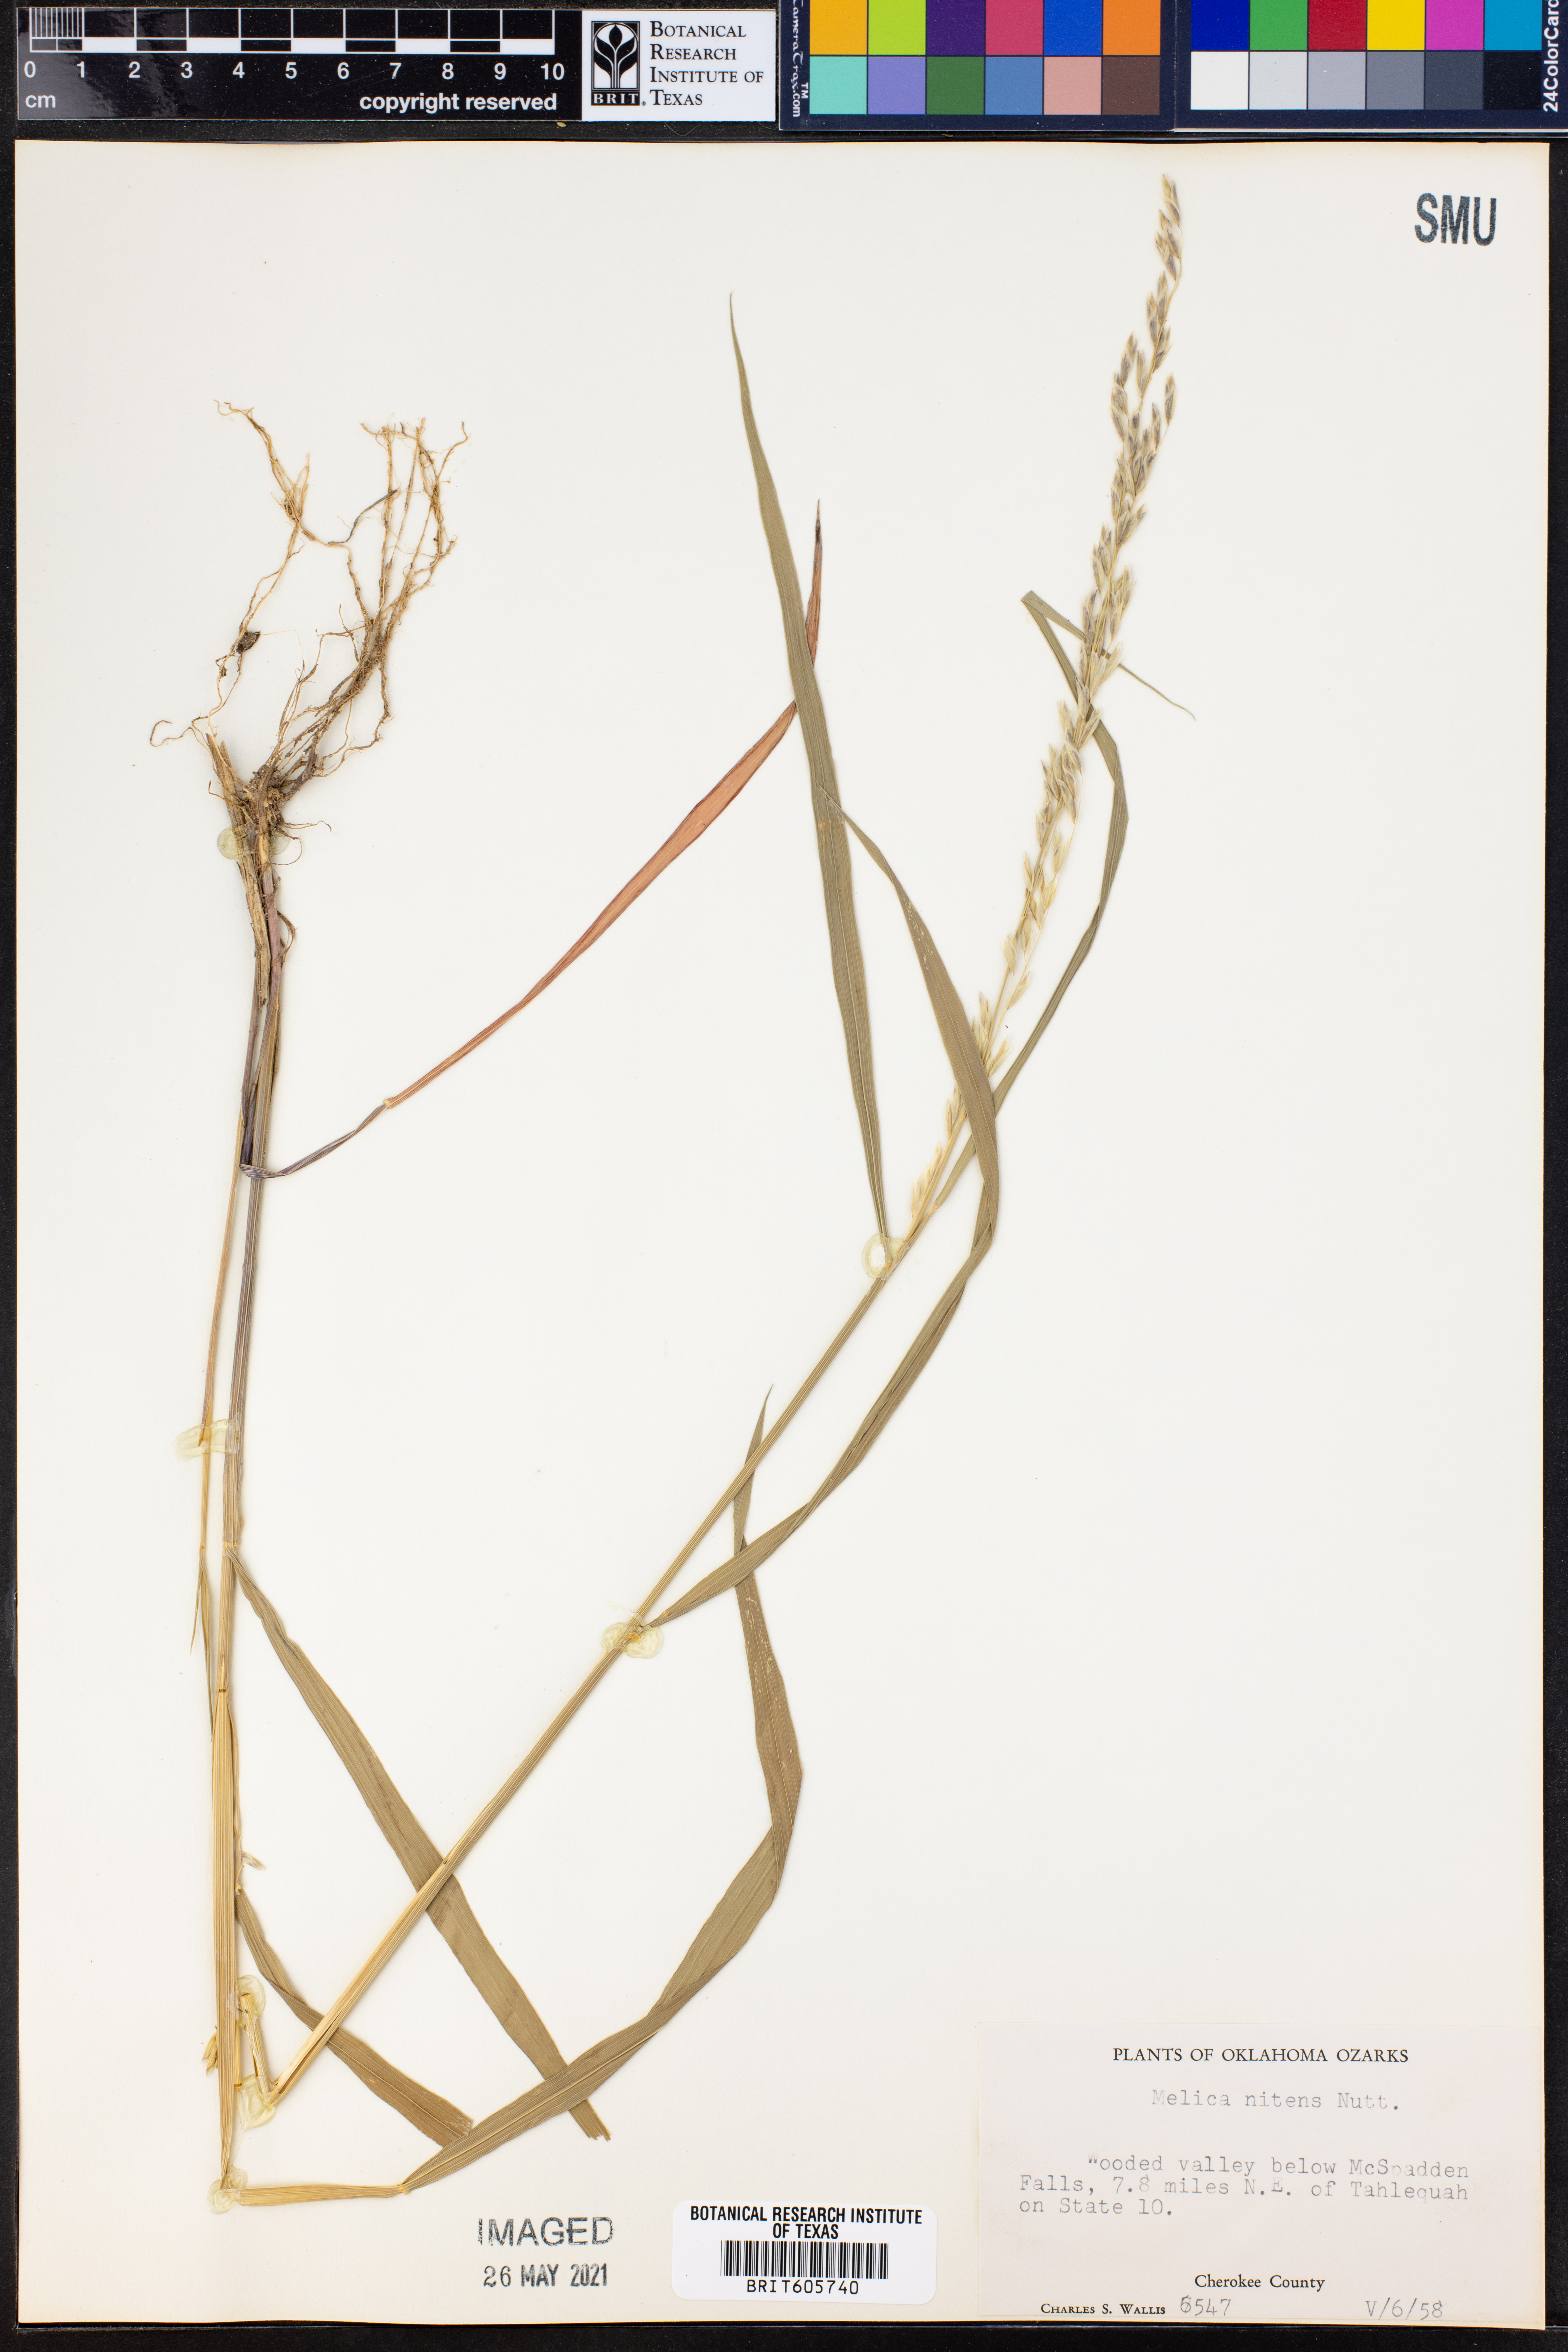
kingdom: Plantae
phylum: Tracheophyta
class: Liliopsida
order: Poales
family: Poaceae
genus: Melica
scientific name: Melica nitens
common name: Three-flower melic
